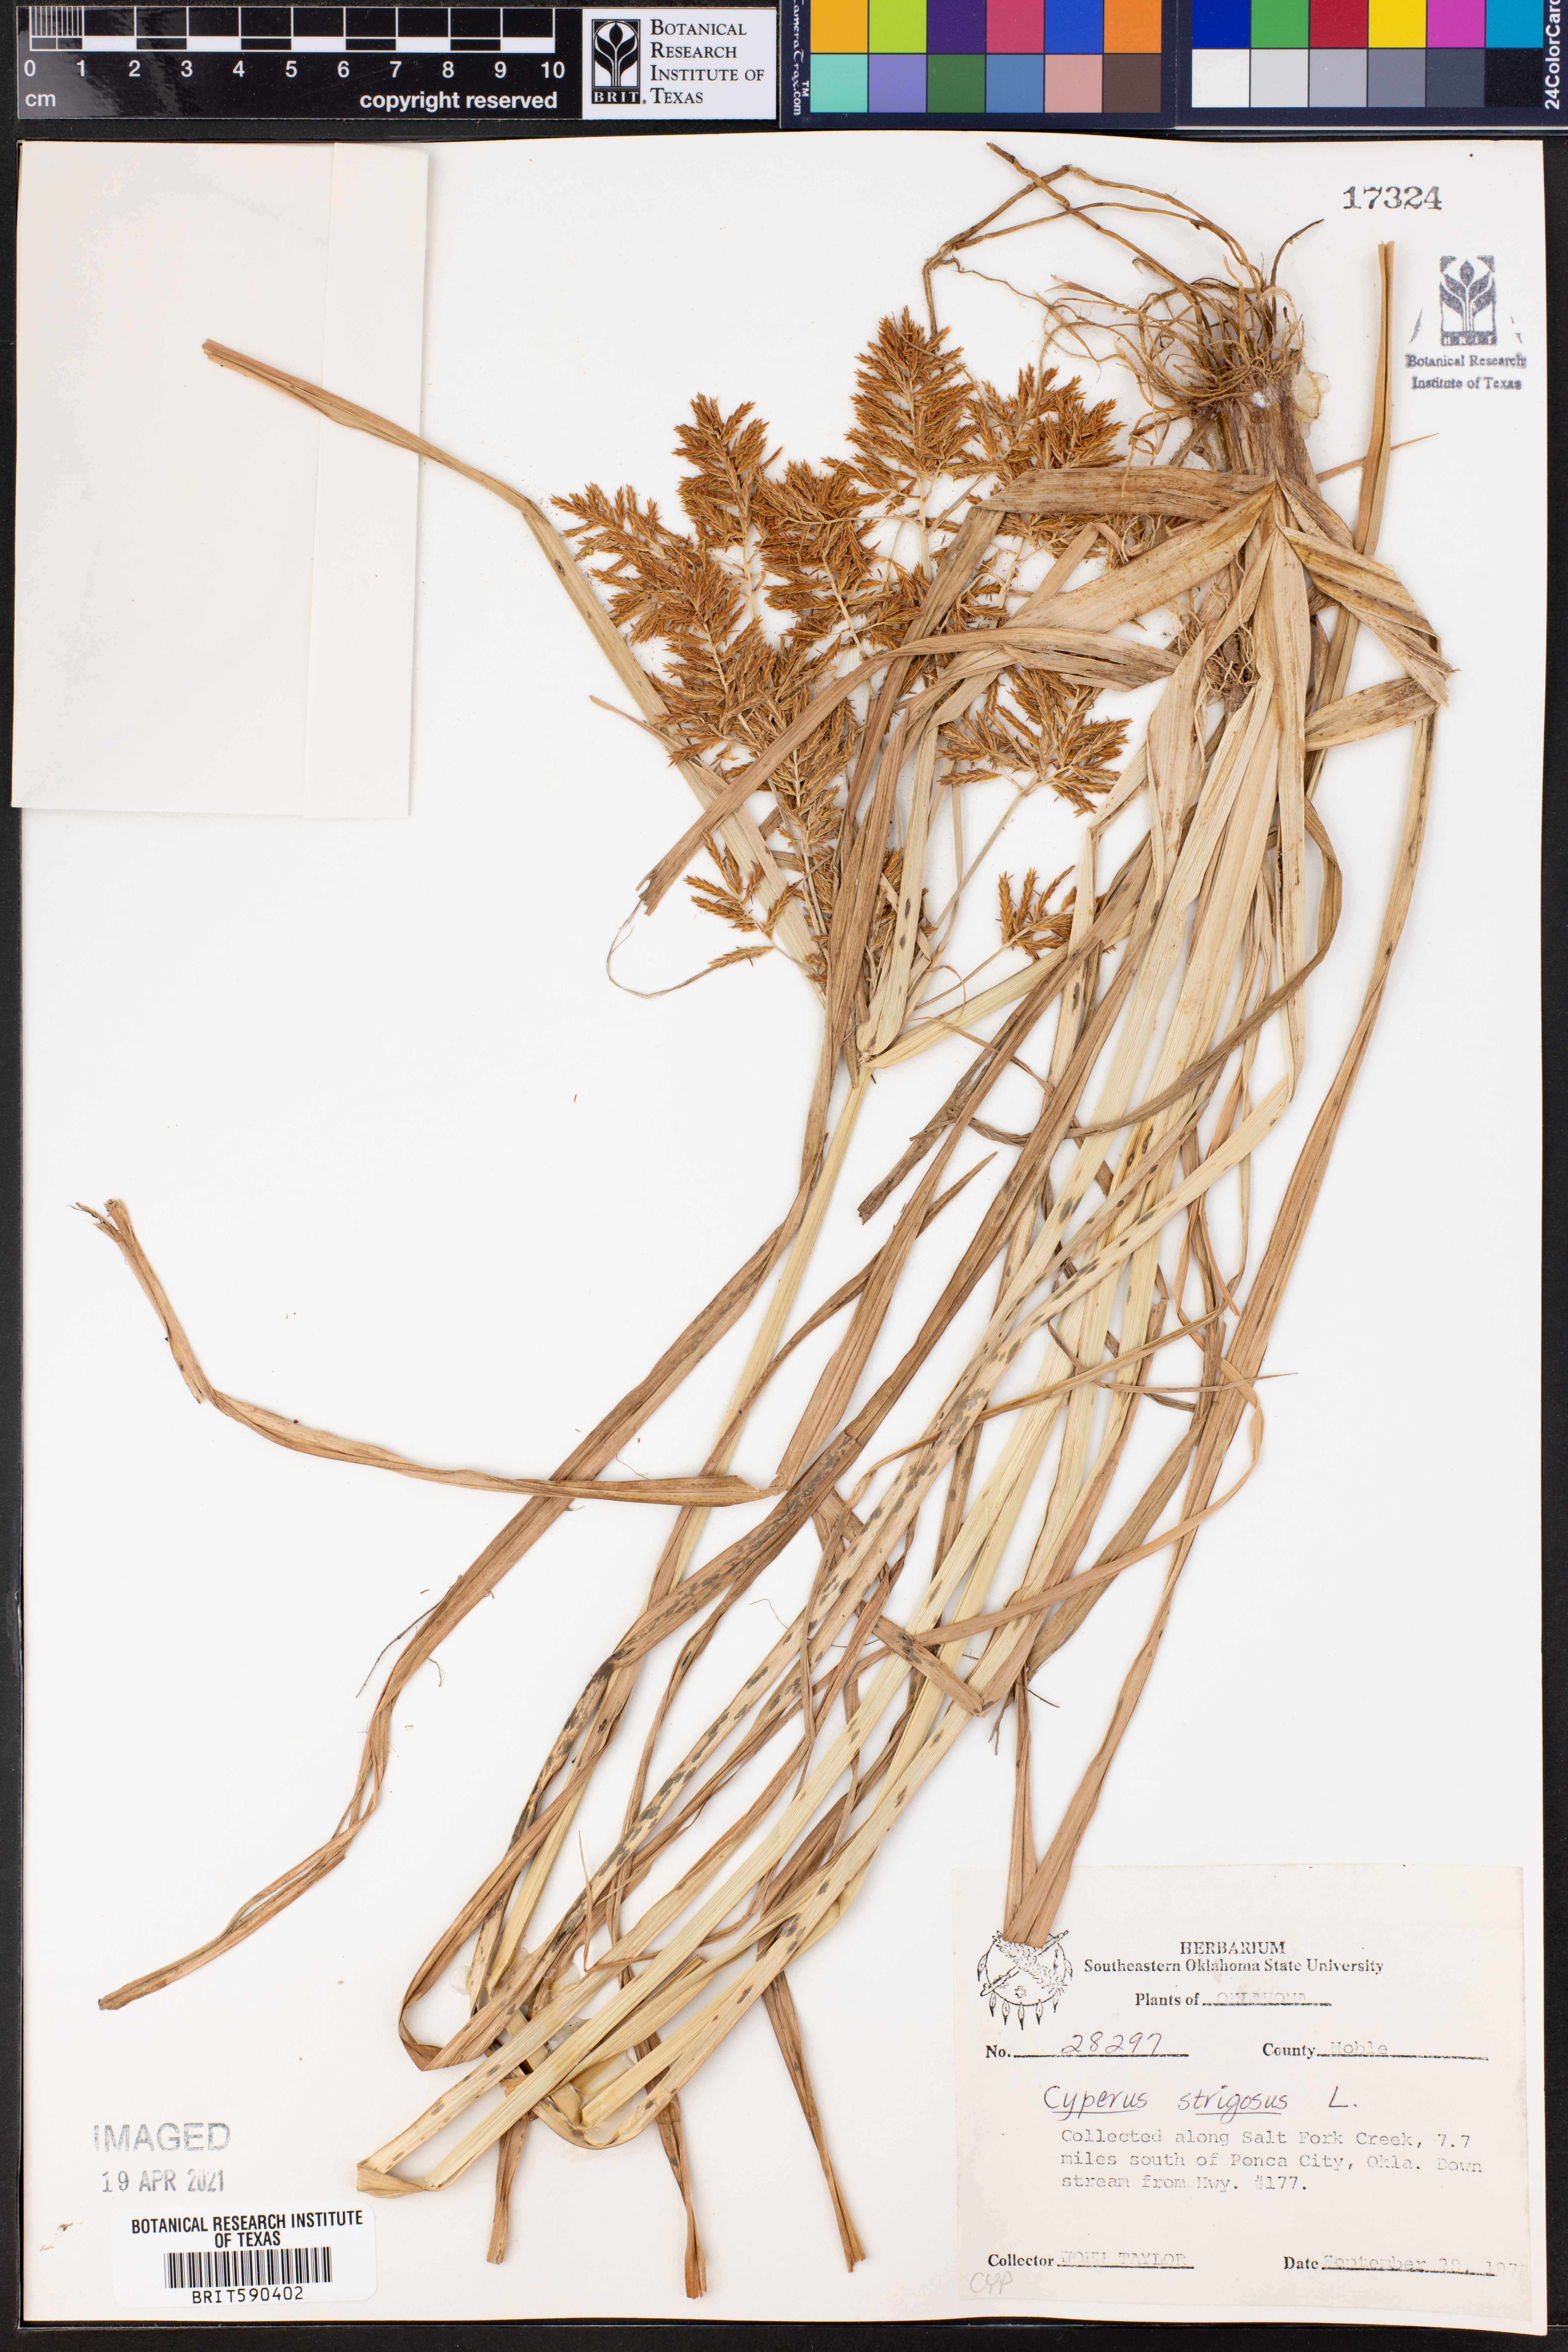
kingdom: Plantae
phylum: Tracheophyta
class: Liliopsida
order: Poales
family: Cyperaceae
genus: Cyperus
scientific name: Cyperus strigosus
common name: False nutsedge
